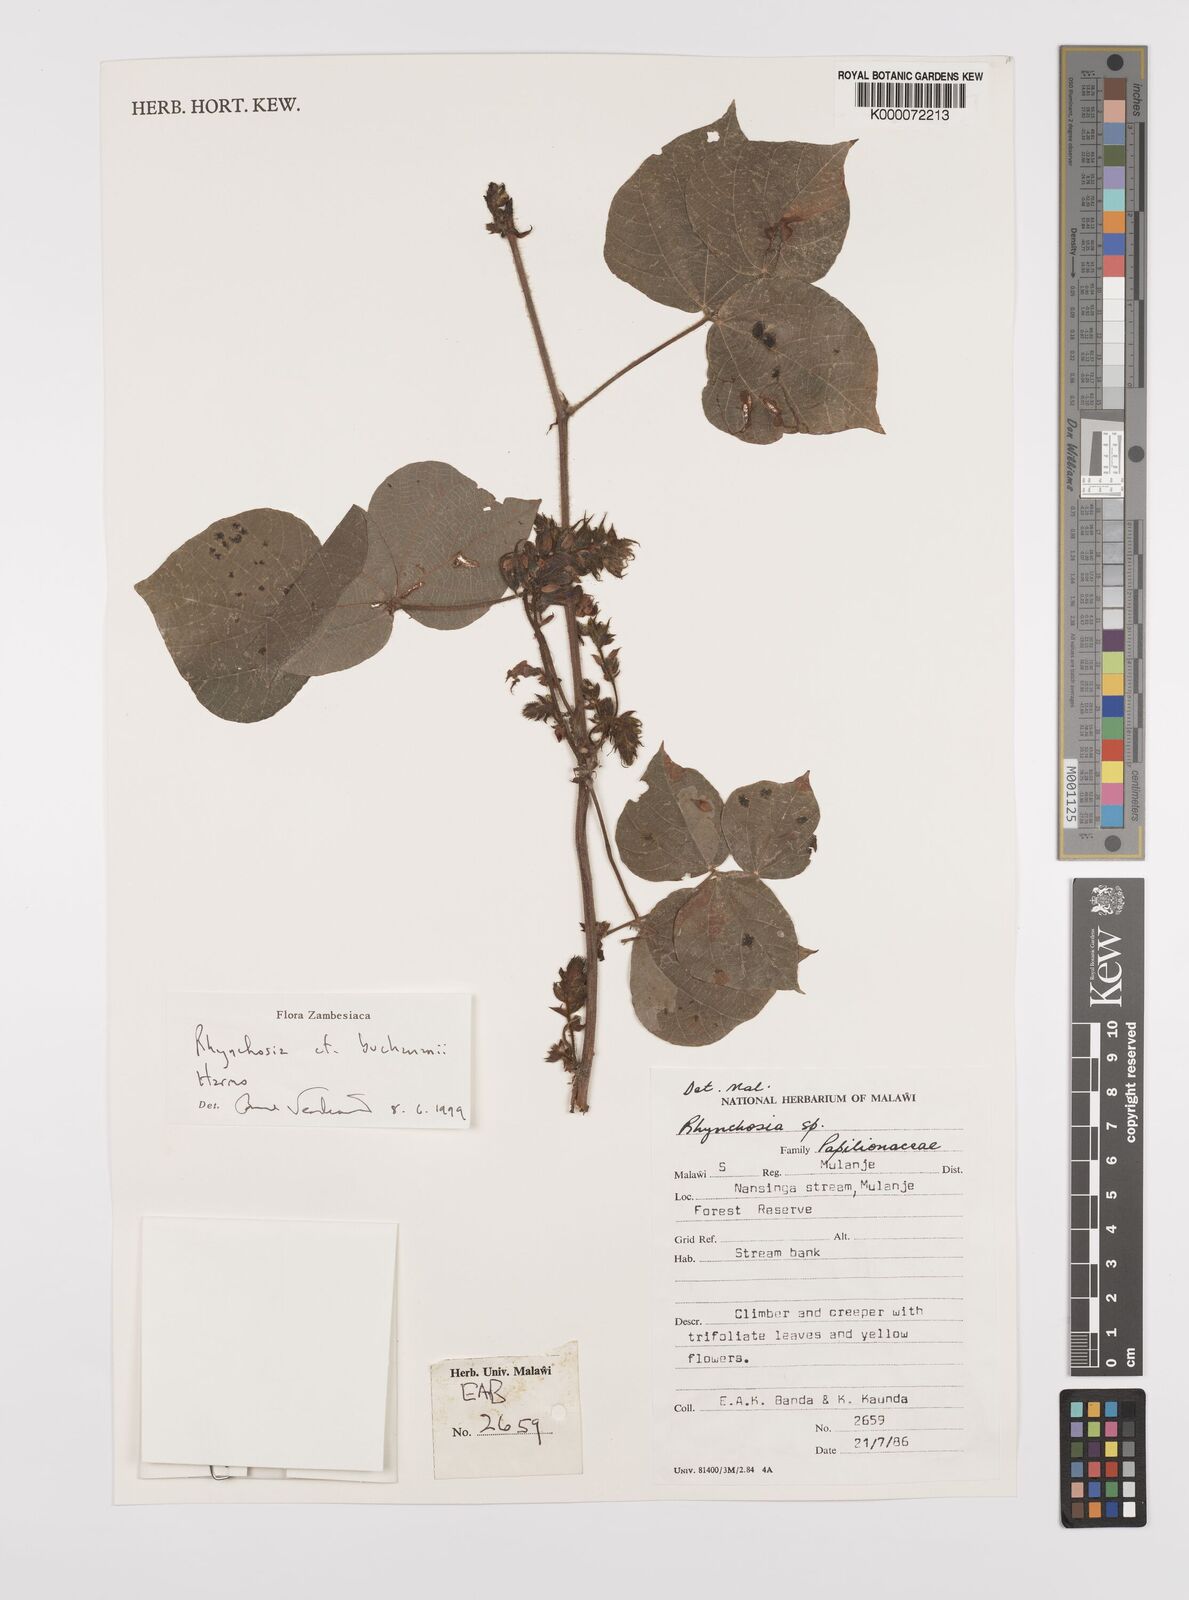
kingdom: Plantae
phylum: Tracheophyta
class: Magnoliopsida
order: Fabales
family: Fabaceae
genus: Rhynchosia
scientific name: Rhynchosia buchananii
